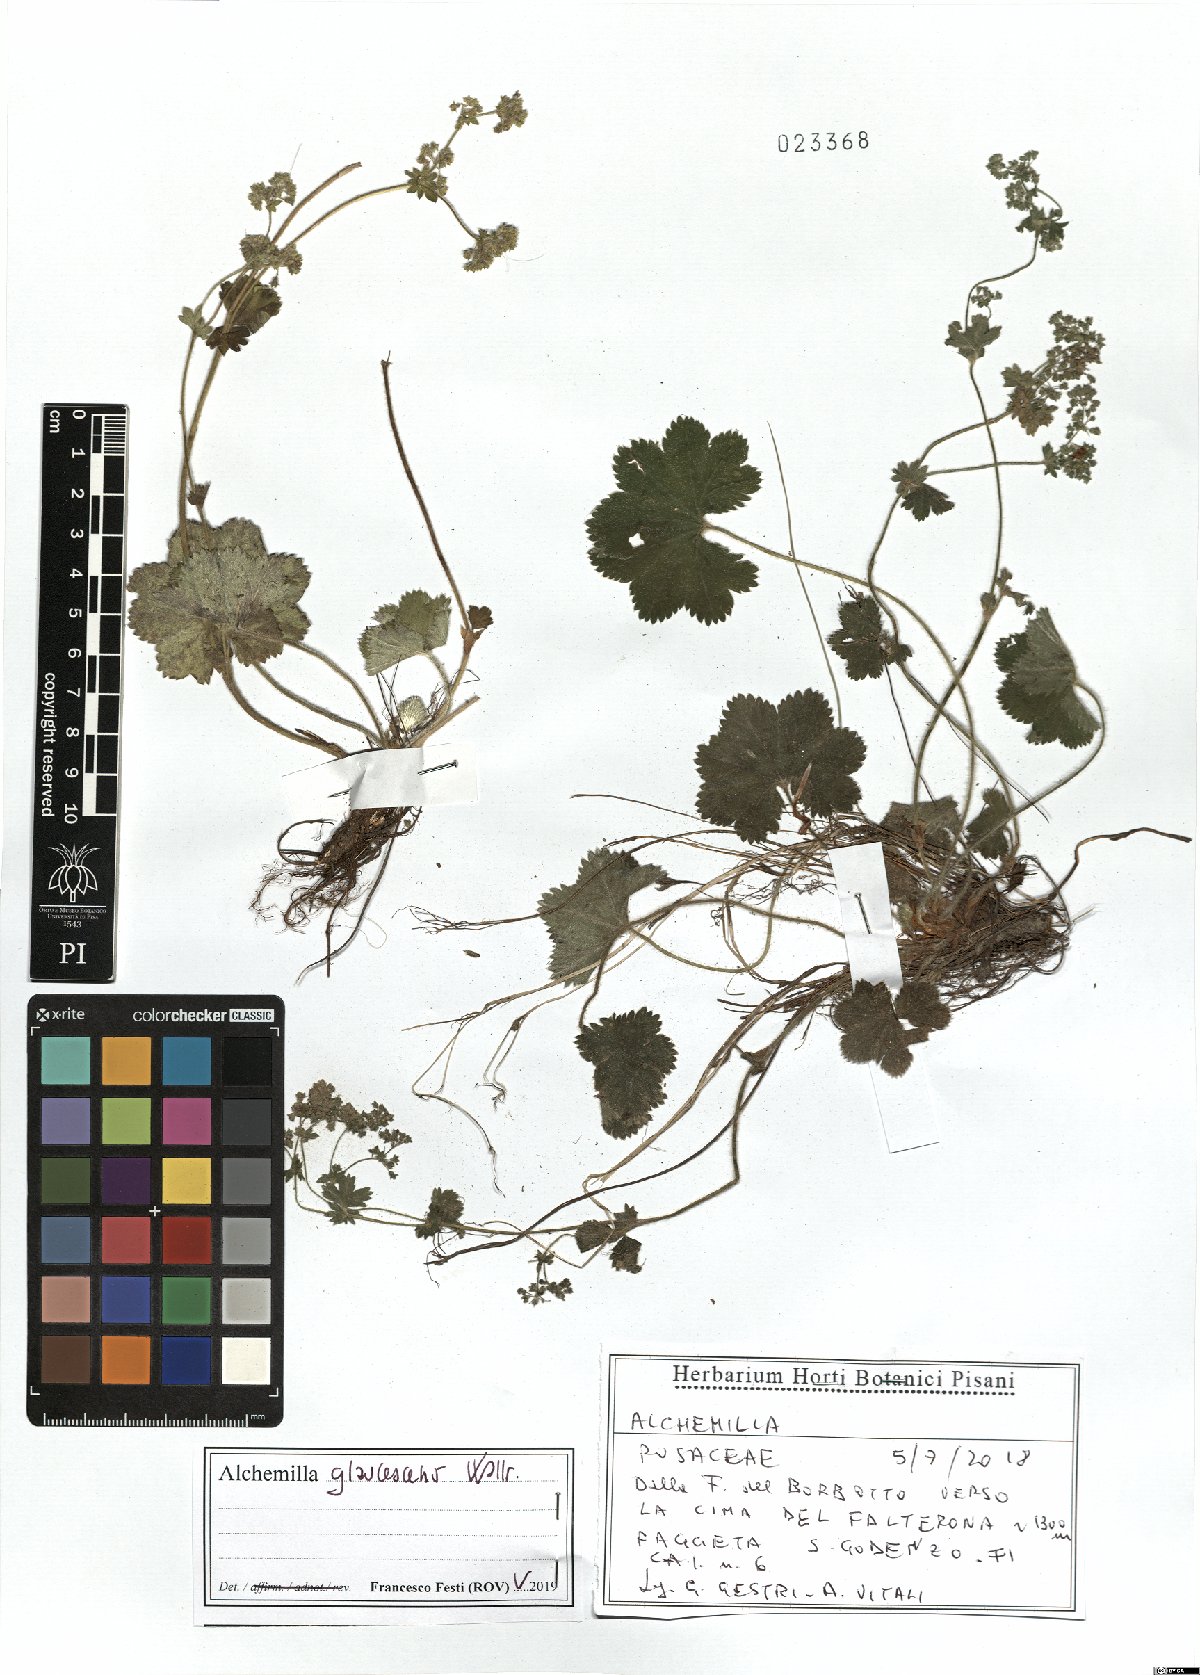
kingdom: Plantae
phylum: Tracheophyta
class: Magnoliopsida
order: Rosales
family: Rosaceae
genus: Alchemilla
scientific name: Alchemilla glaucescens
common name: Silky lady's mantle
